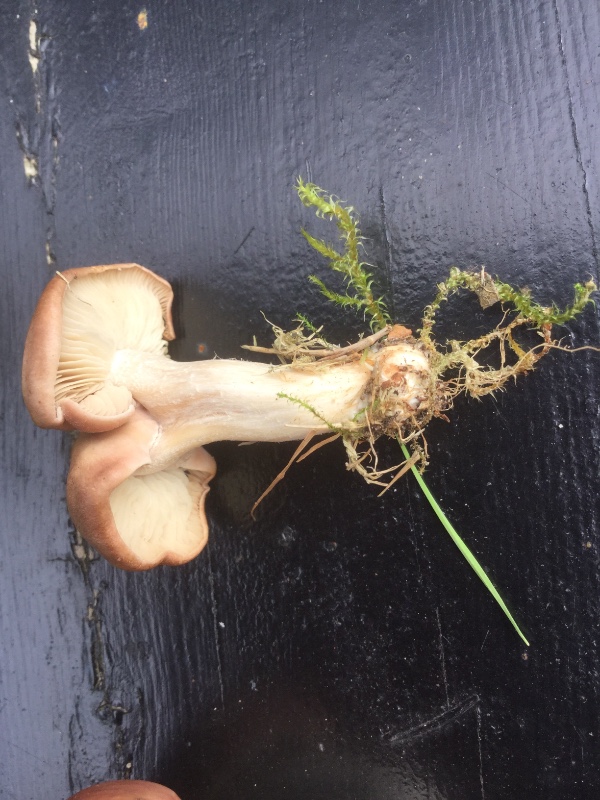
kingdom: Fungi
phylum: Basidiomycota
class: Agaricomycetes
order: Agaricales
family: Tricholomataceae
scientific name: Tricholomataceae
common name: ridderhatfamilien
